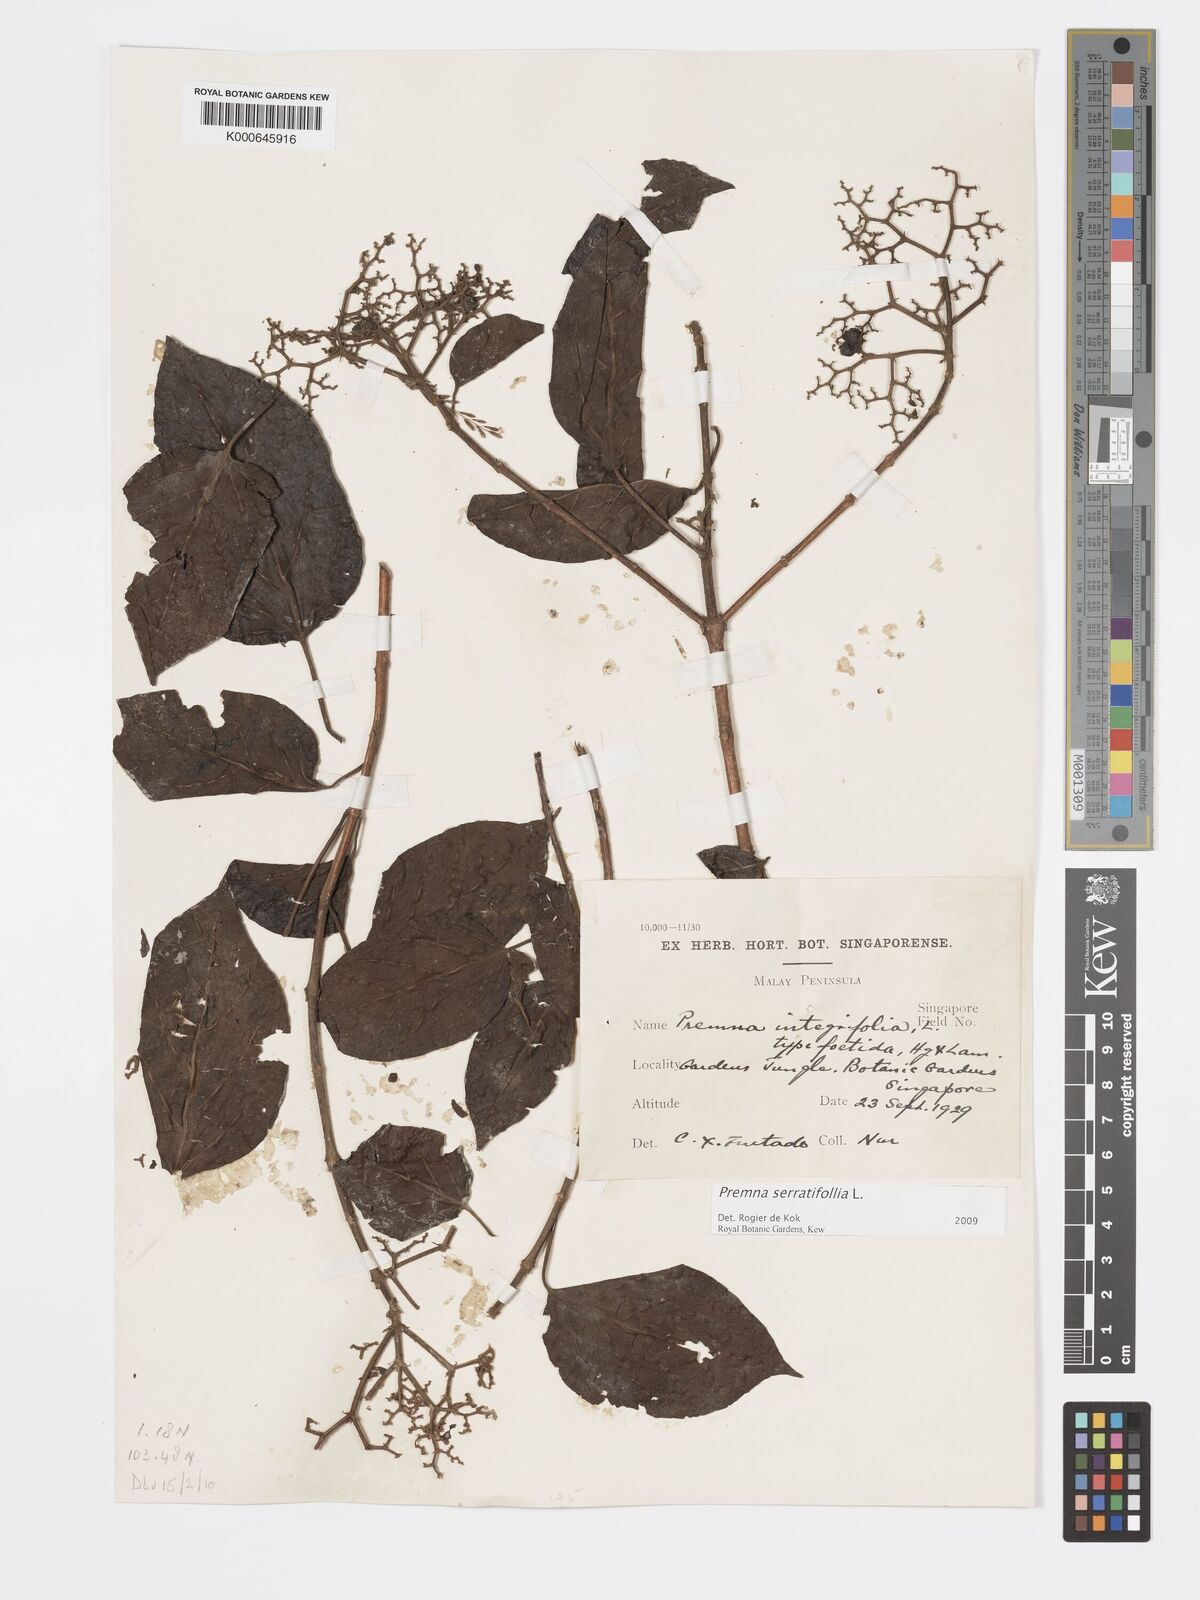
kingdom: Plantae
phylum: Tracheophyta
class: Magnoliopsida
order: Lamiales
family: Lamiaceae
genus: Premna
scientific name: Premna serratifolia
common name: Bastard guelder
